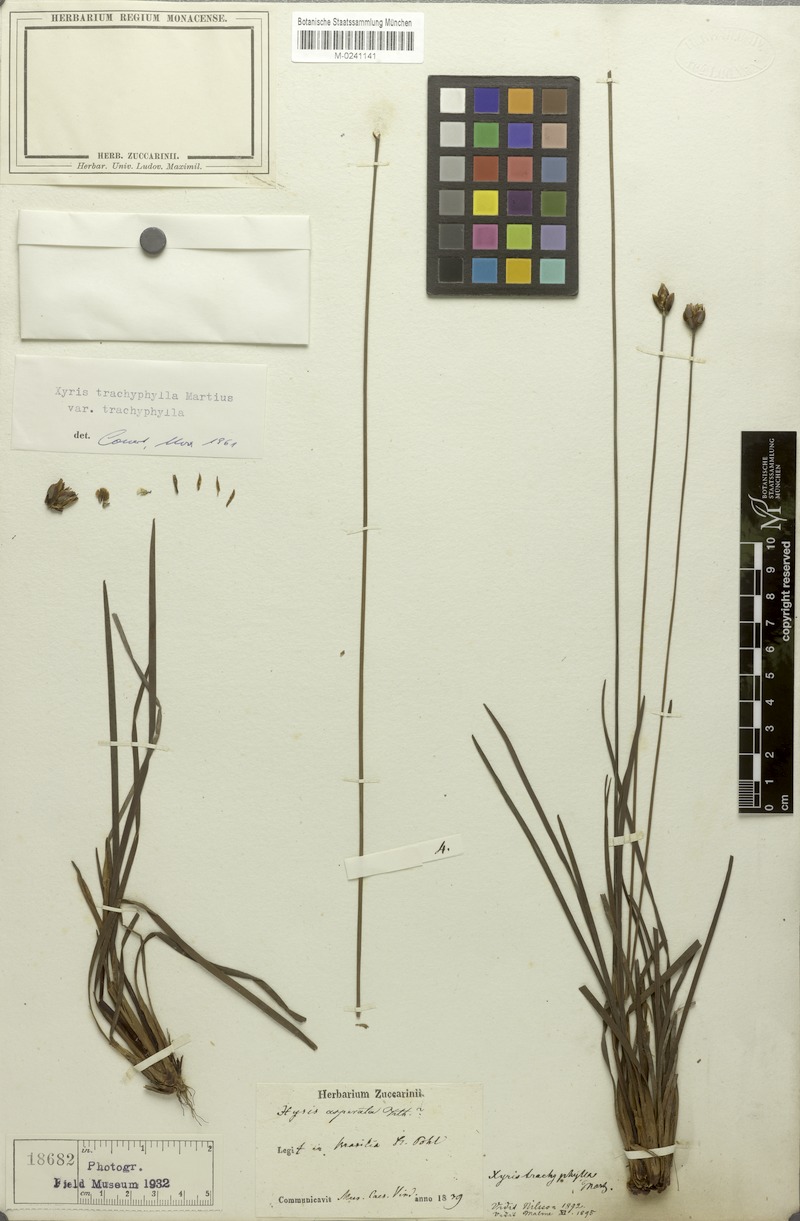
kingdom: Plantae
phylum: Tracheophyta
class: Liliopsida
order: Poales
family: Xyridaceae
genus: Xyris
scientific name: Xyris trachyphylla
